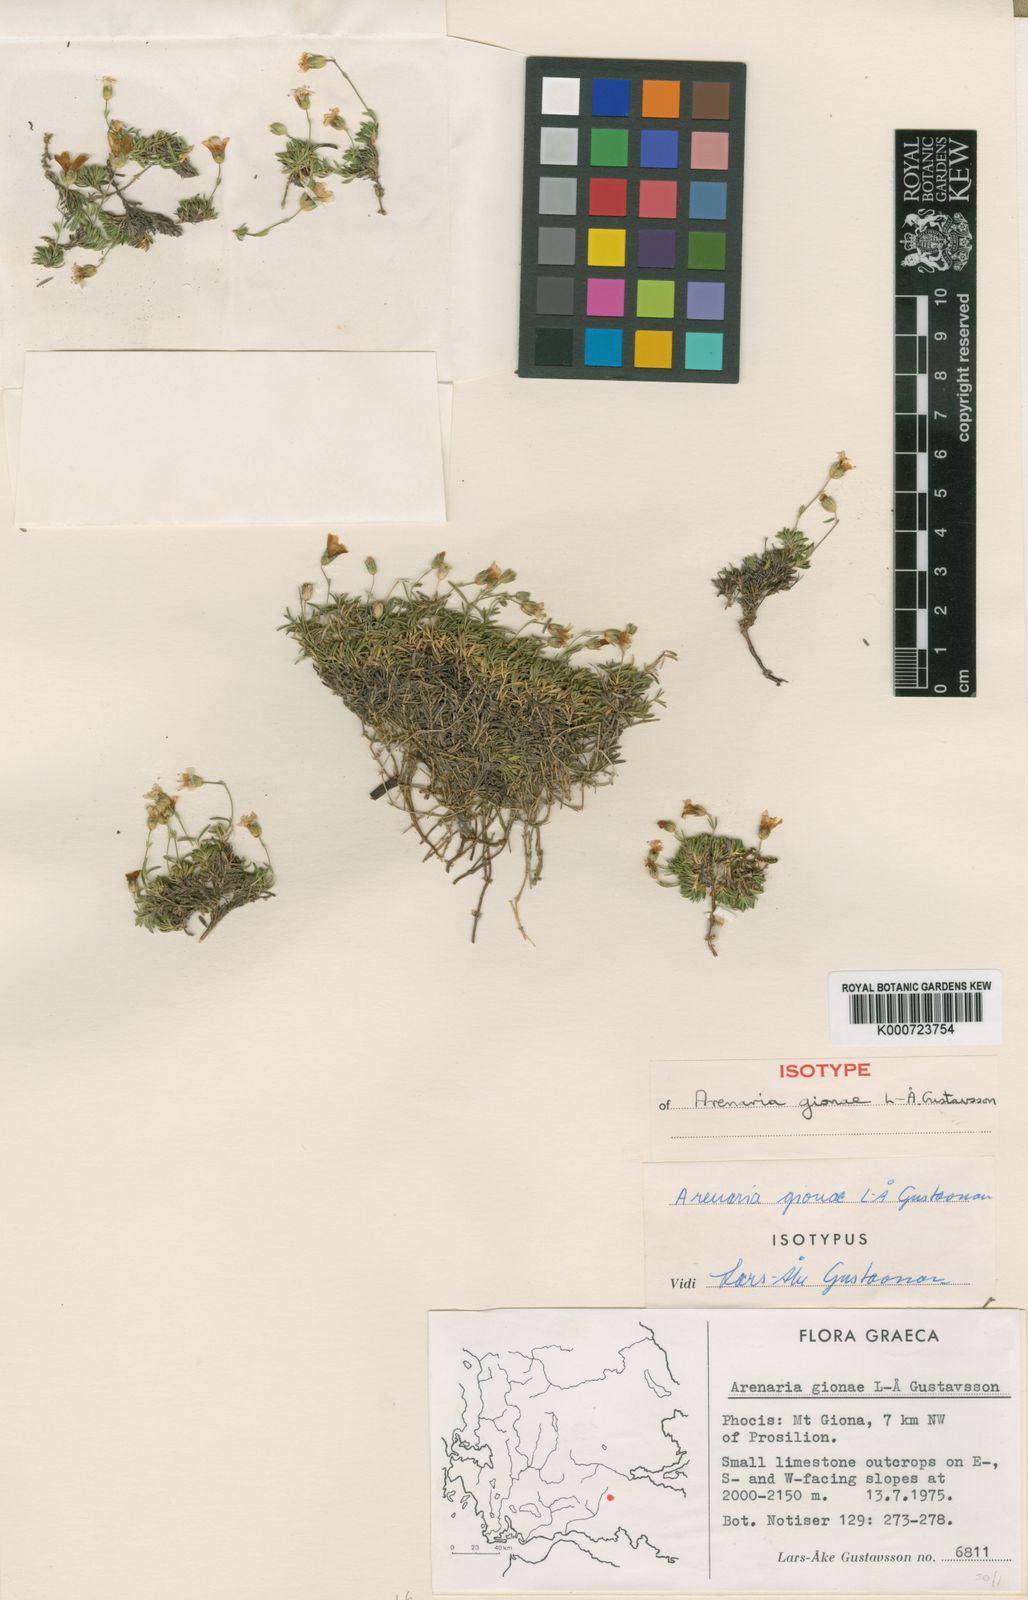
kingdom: Plantae
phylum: Tracheophyta
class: Magnoliopsida
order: Caryophyllales
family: Caryophyllaceae
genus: Arenaria
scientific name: Arenaria gionae
